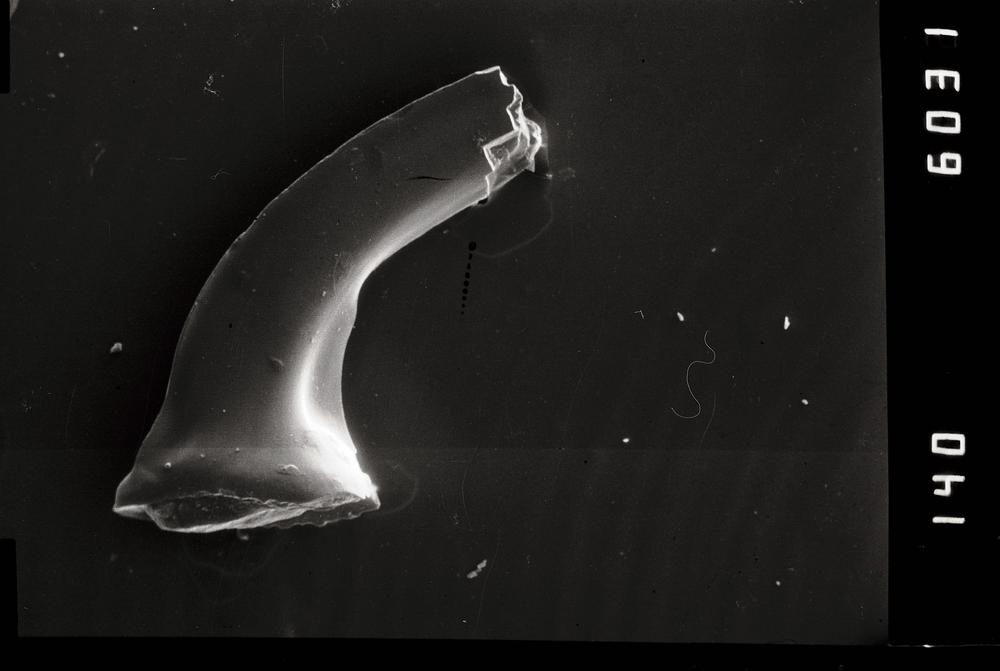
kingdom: Animalia
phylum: Chordata
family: Protopanderodontidae
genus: Eucharodus
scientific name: Eucharodus
